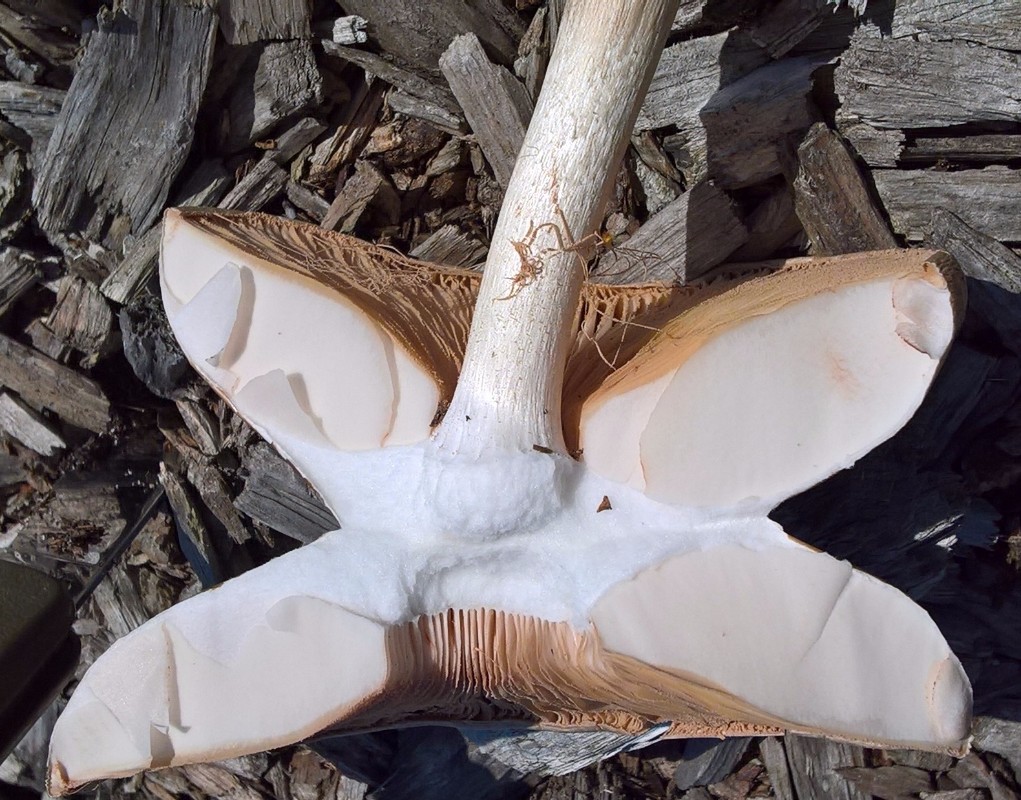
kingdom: Fungi
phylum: Basidiomycota
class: Agaricomycetes
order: Agaricales
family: Pluteaceae
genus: Pluteus
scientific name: Pluteus cervinus
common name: sodfarvet skærmhat
